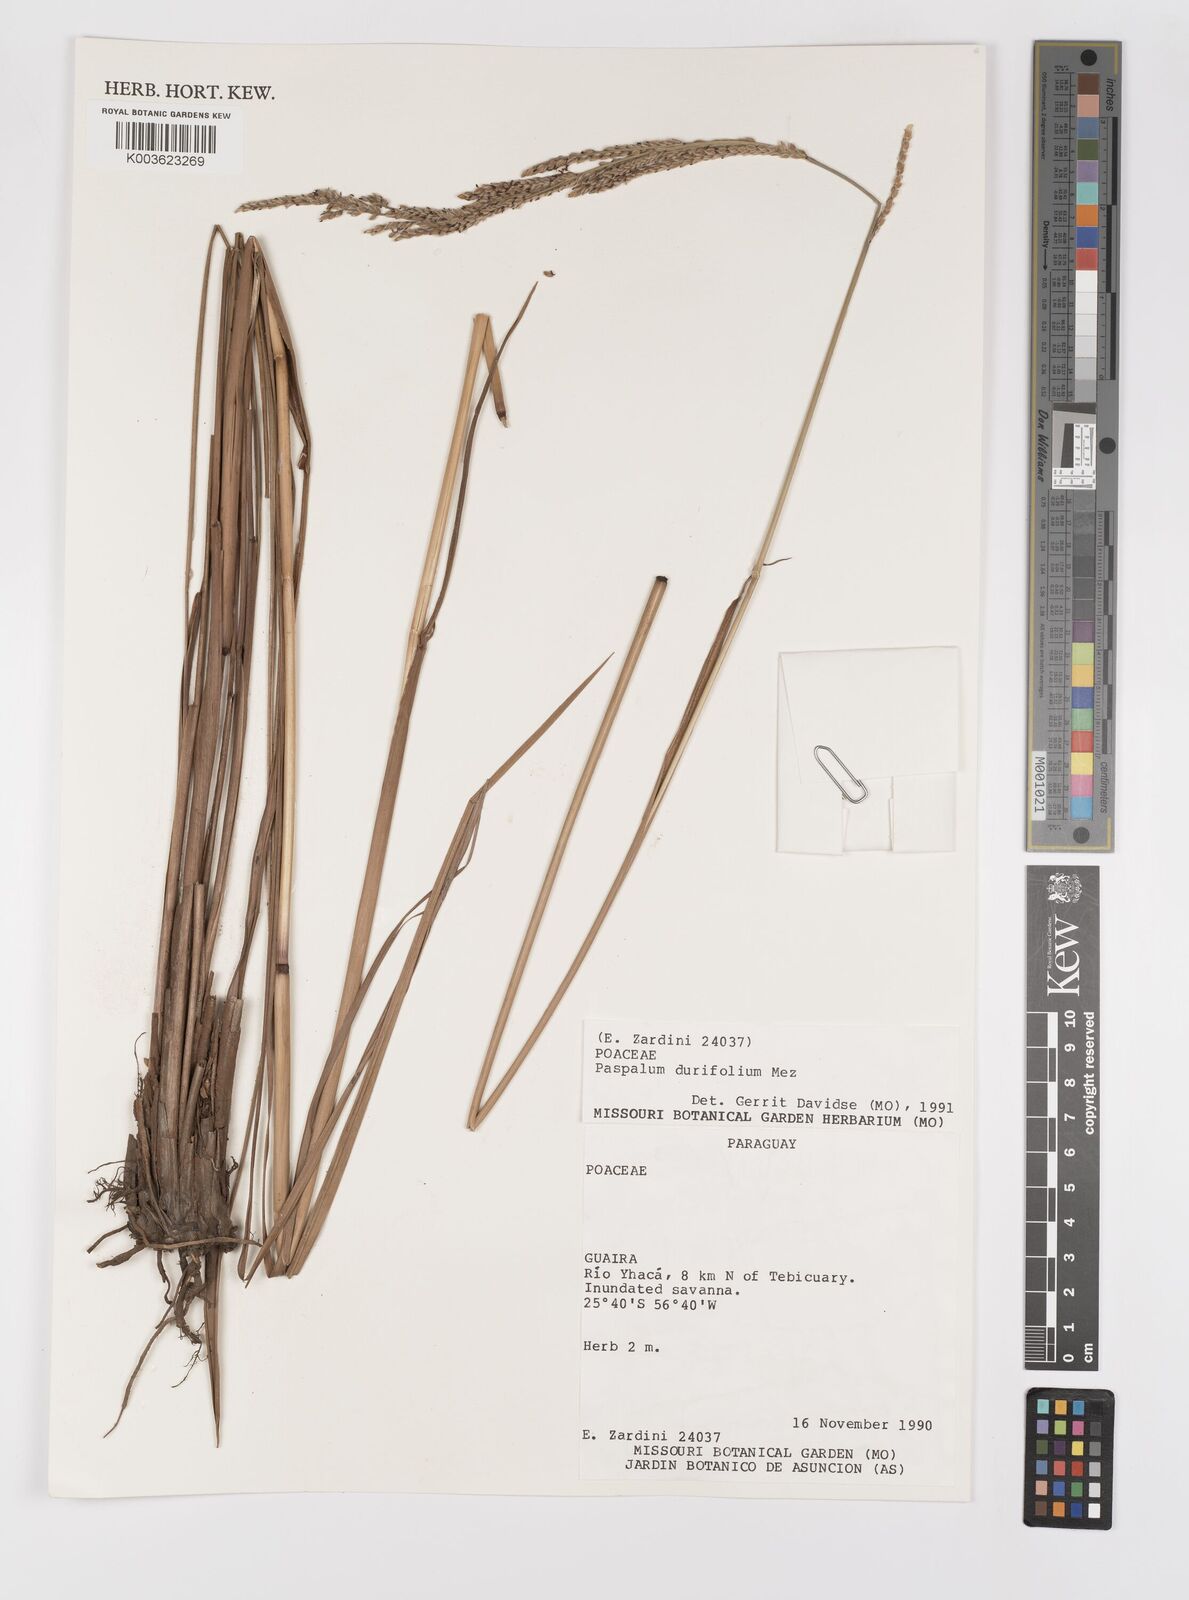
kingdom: Plantae
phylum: Tracheophyta
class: Liliopsida
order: Poales
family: Poaceae
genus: Paspalum
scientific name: Paspalum durifolium
